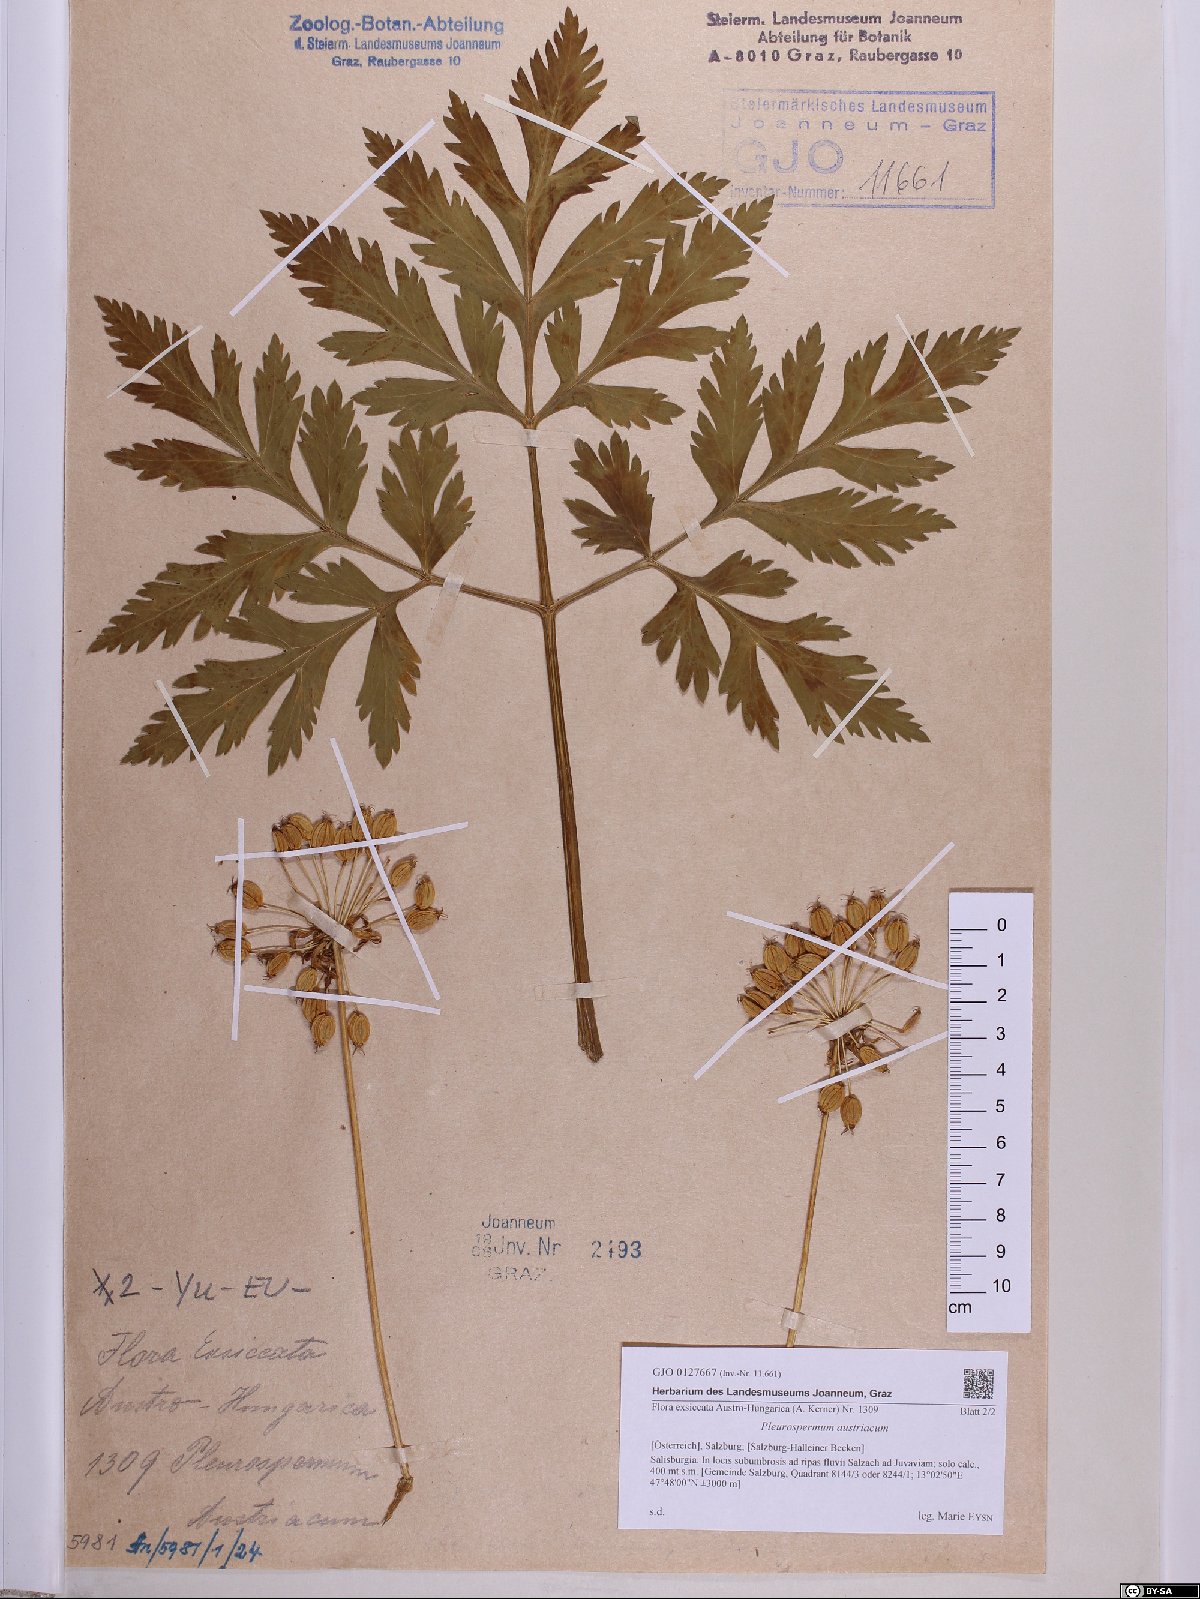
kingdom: Plantae
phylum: Tracheophyta
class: Magnoliopsida
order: Apiales
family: Apiaceae
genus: Pleurospermum
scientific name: Pleurospermum austriacum
